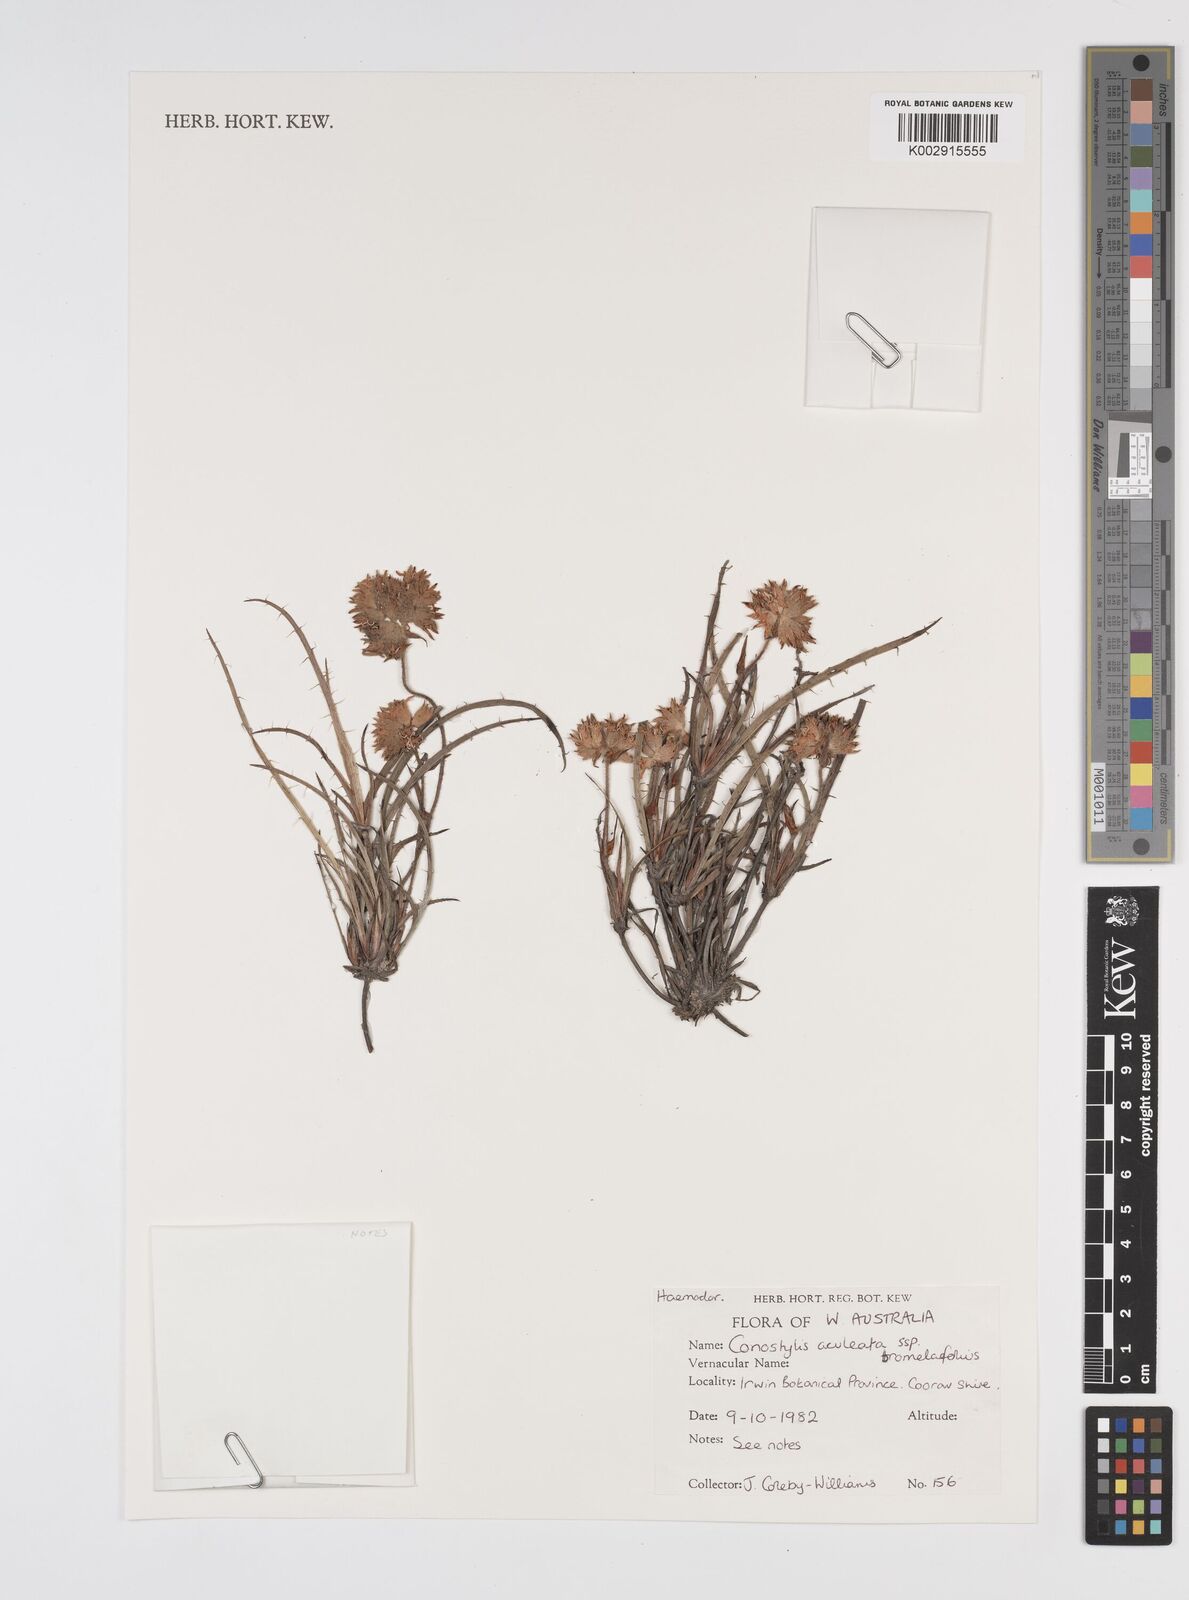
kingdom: Plantae
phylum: Tracheophyta
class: Liliopsida
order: Commelinales
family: Haemodoraceae
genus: Conostylis
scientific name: Conostylis aculeata
